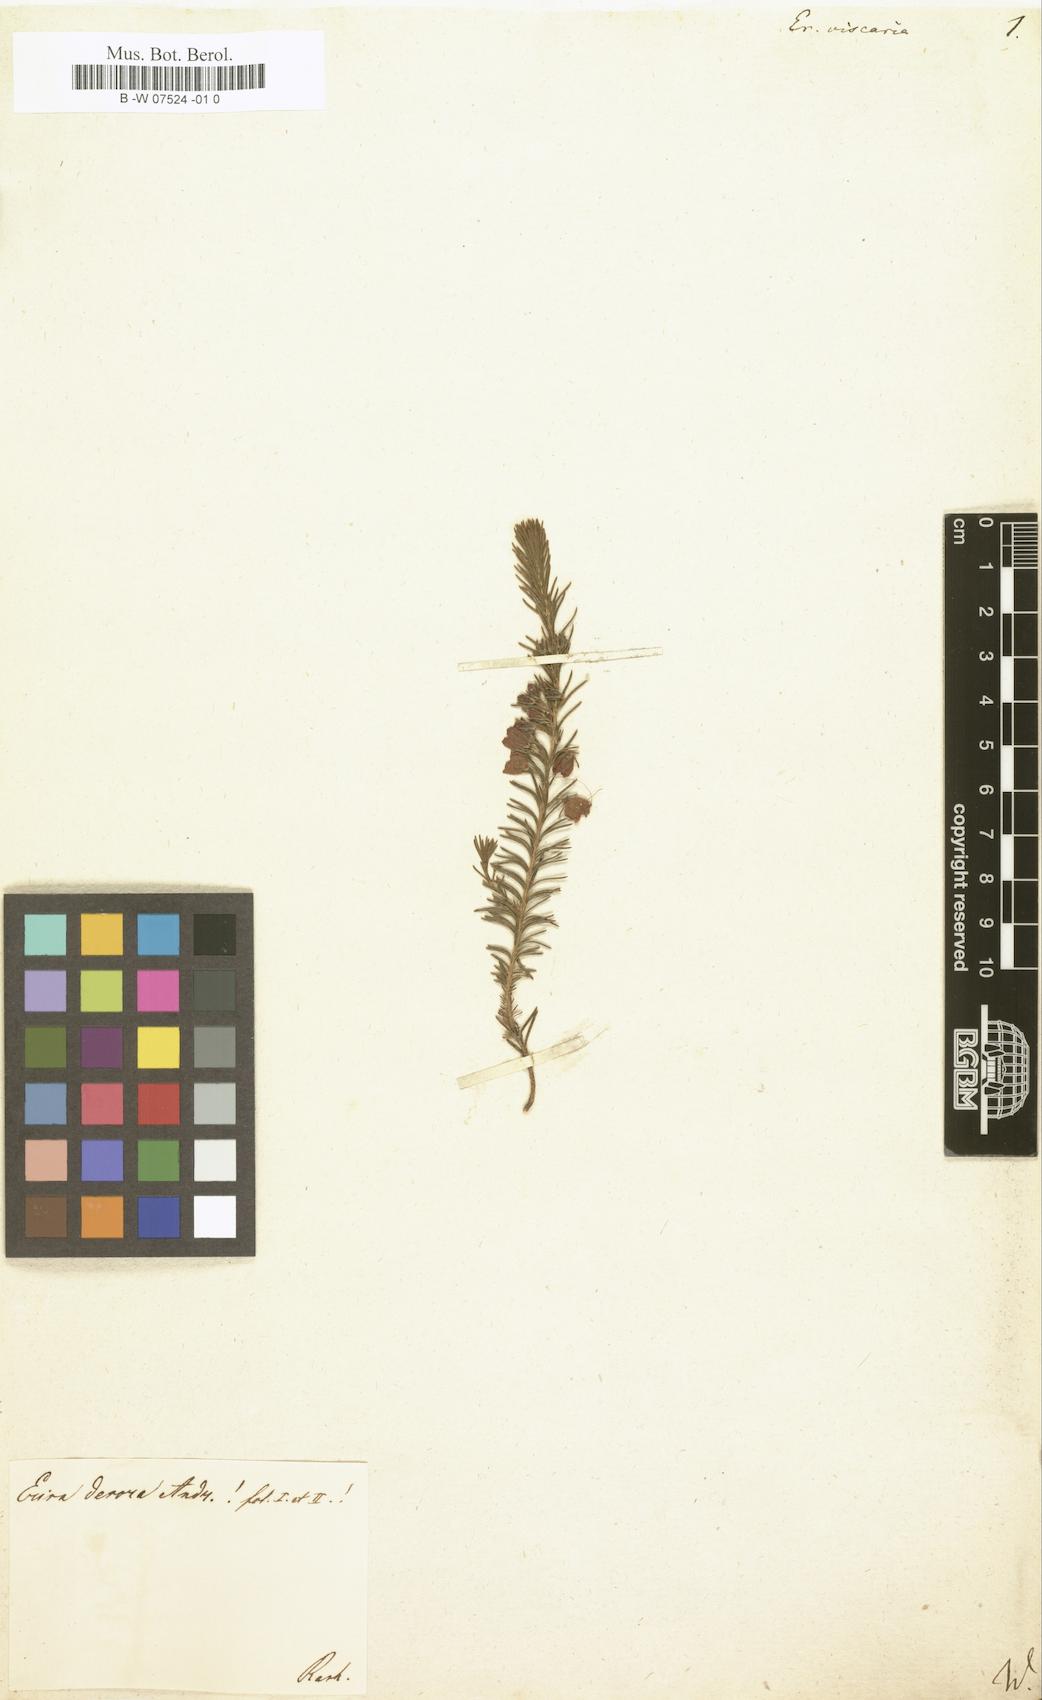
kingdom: Plantae
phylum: Tracheophyta
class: Magnoliopsida
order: Ericales
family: Ericaceae
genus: Erica
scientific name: Erica viscaria
